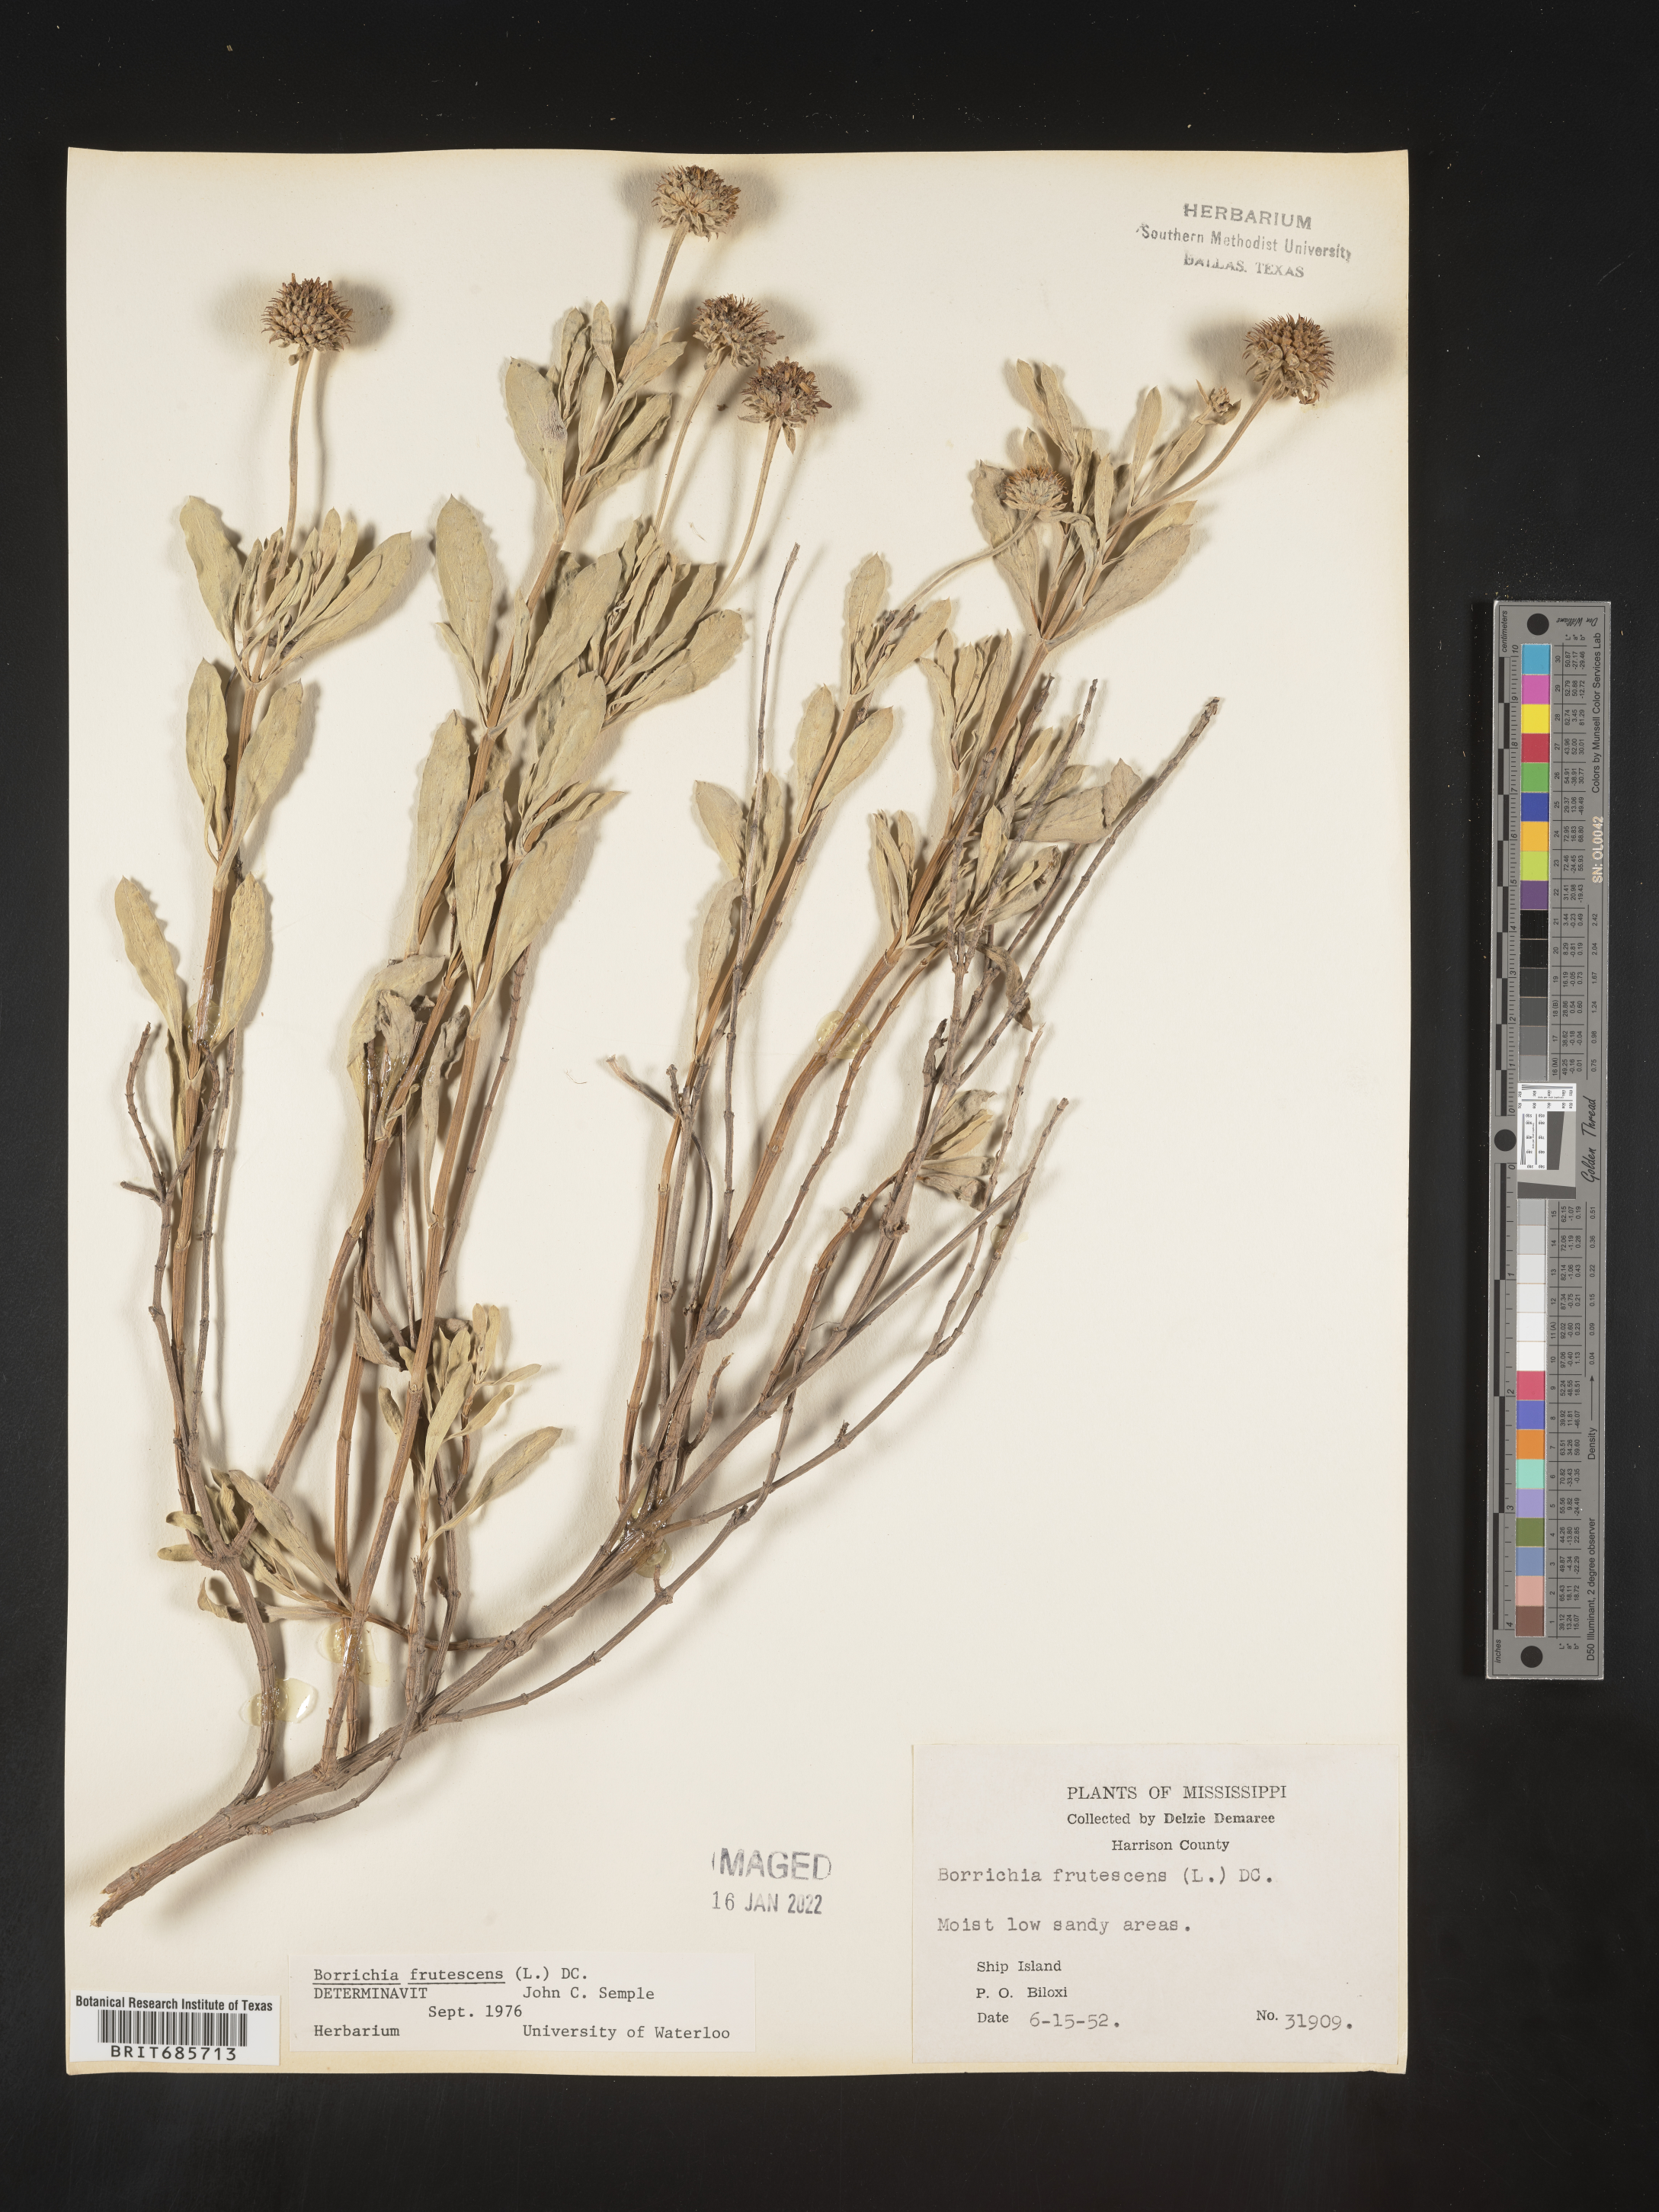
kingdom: Plantae
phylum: Tracheophyta
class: Magnoliopsida
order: Asterales
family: Asteraceae
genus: Borrichia
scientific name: Borrichia frutescens
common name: Sea oxeye
